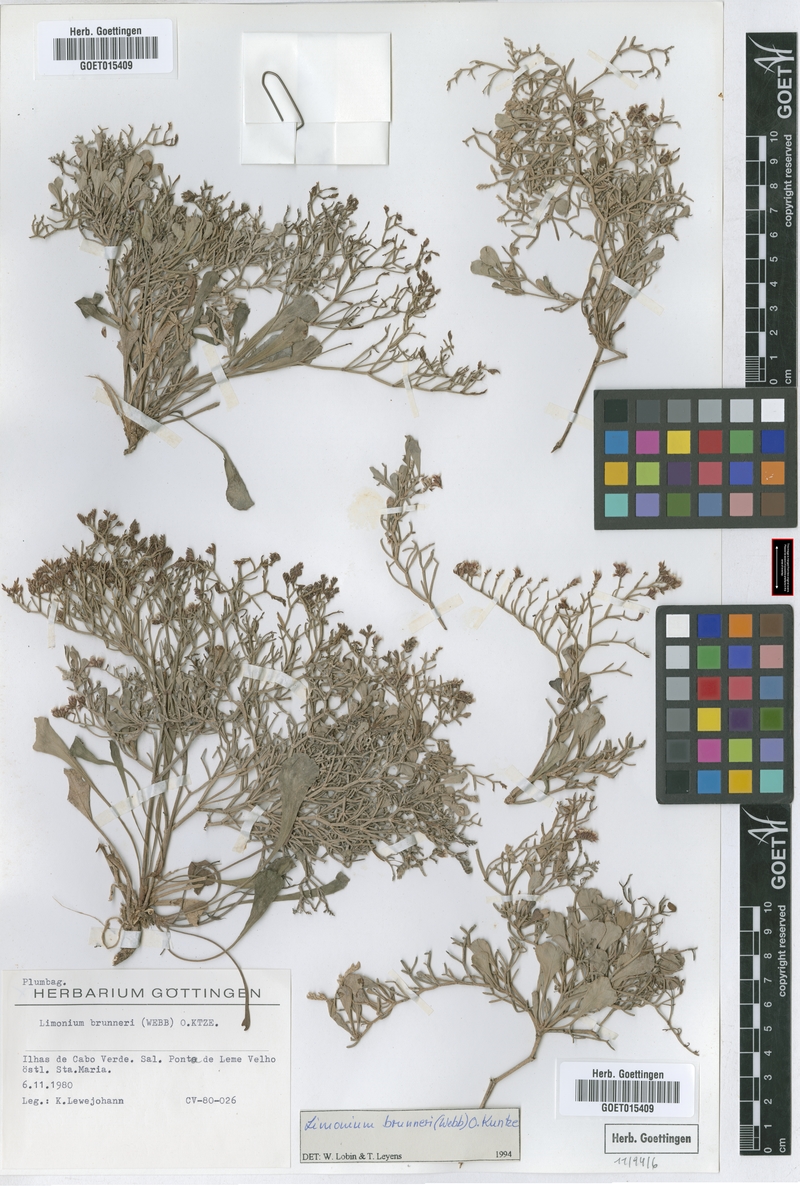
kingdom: Plantae
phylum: Tracheophyta
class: Magnoliopsida
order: Caryophyllales
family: Plumbaginaceae
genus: Limonium
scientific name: Limonium brunneri
